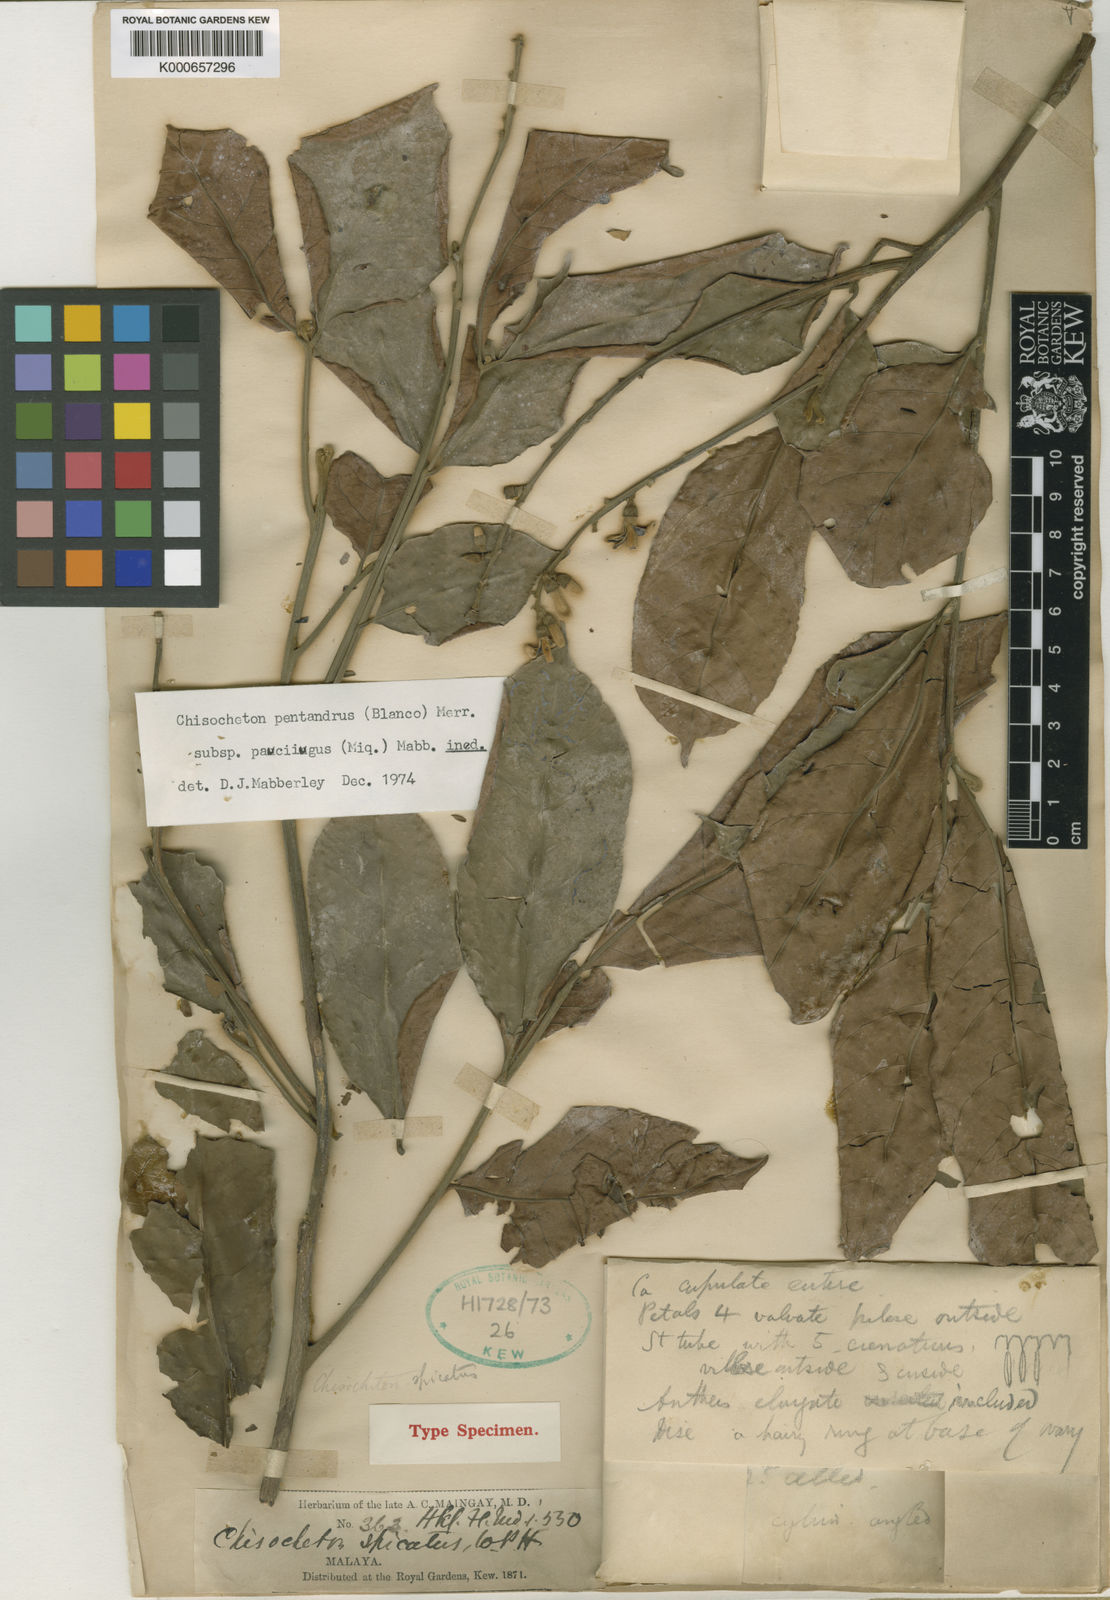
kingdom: Plantae
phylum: Tracheophyta
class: Magnoliopsida
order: Sapindales
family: Meliaceae
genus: Chisocheton
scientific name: Chisocheton pentandrus
